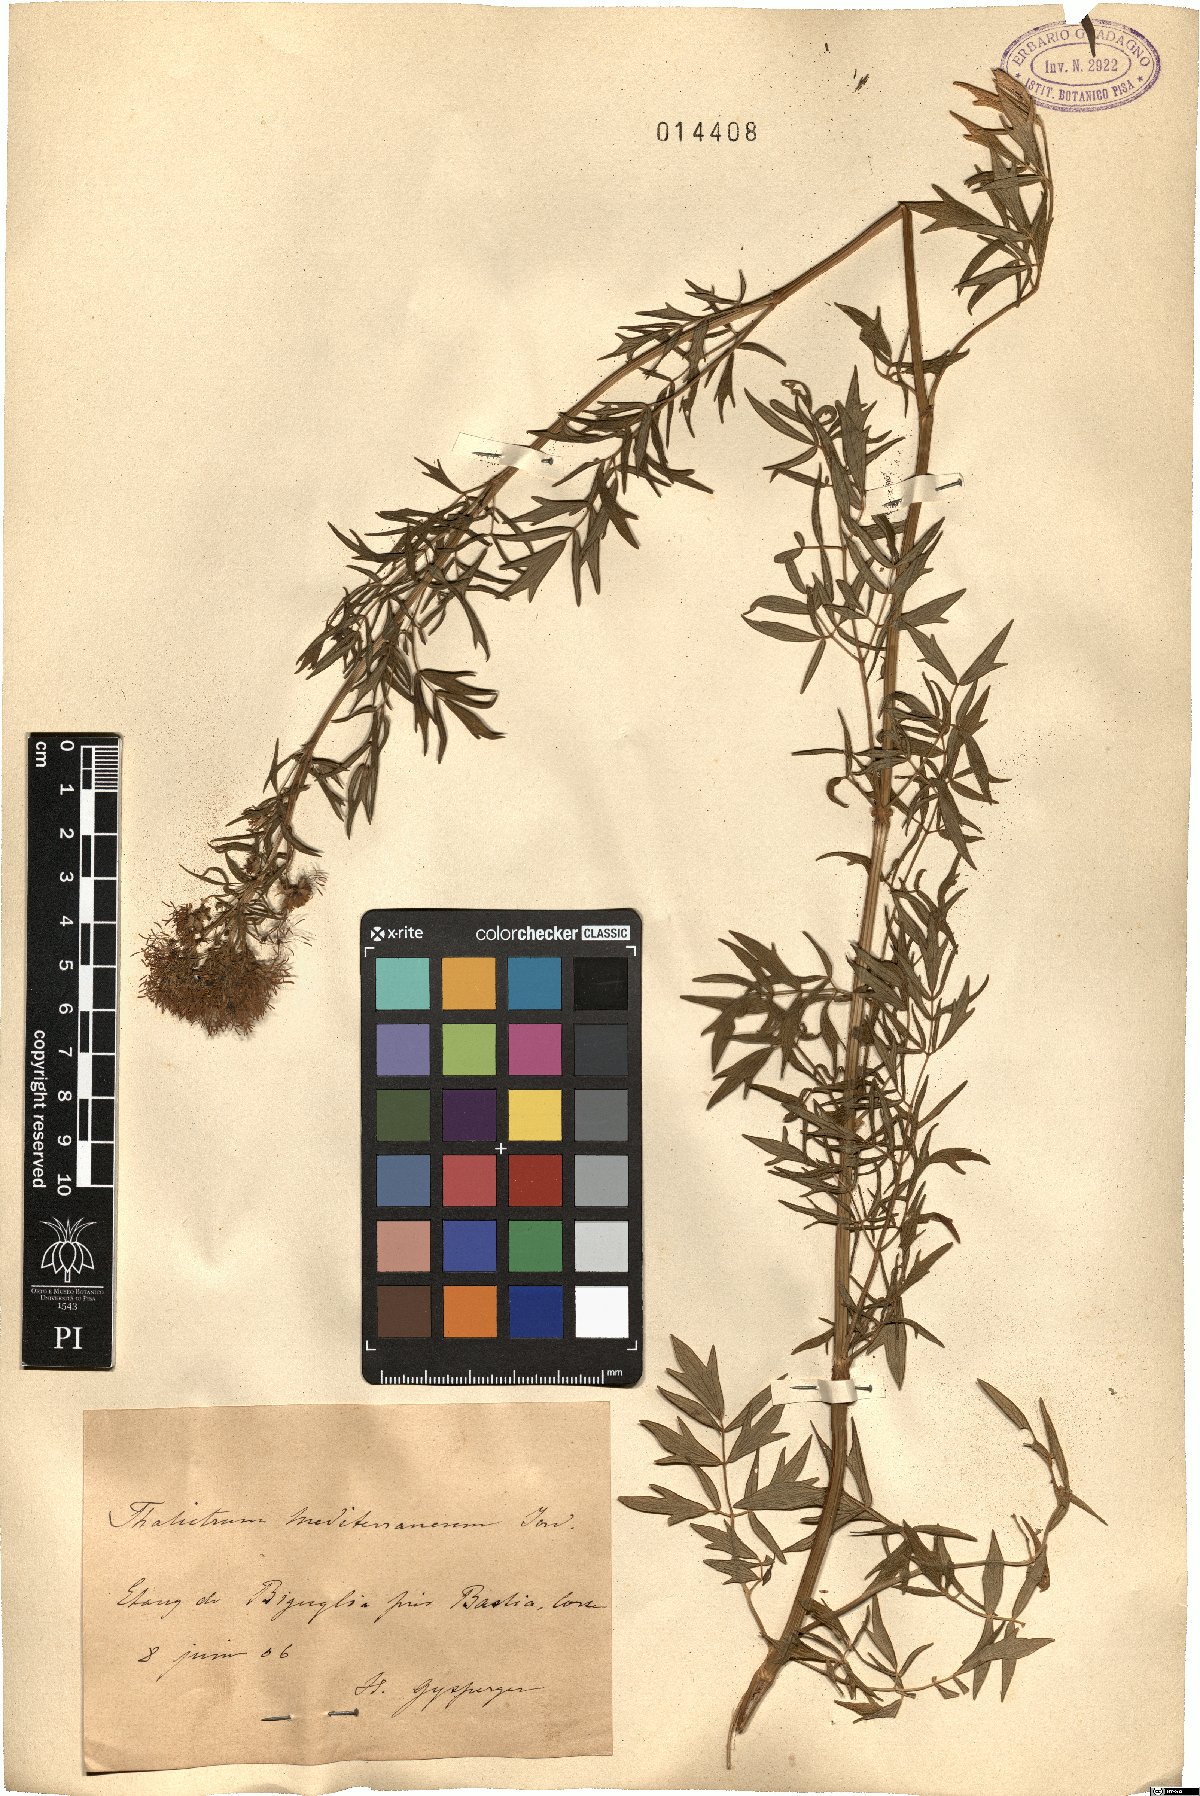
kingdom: Plantae
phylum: Tracheophyta
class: Magnoliopsida
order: Ranunculales
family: Ranunculaceae
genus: Thalictrum
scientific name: Thalictrum flavum
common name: Common meadow-rue
